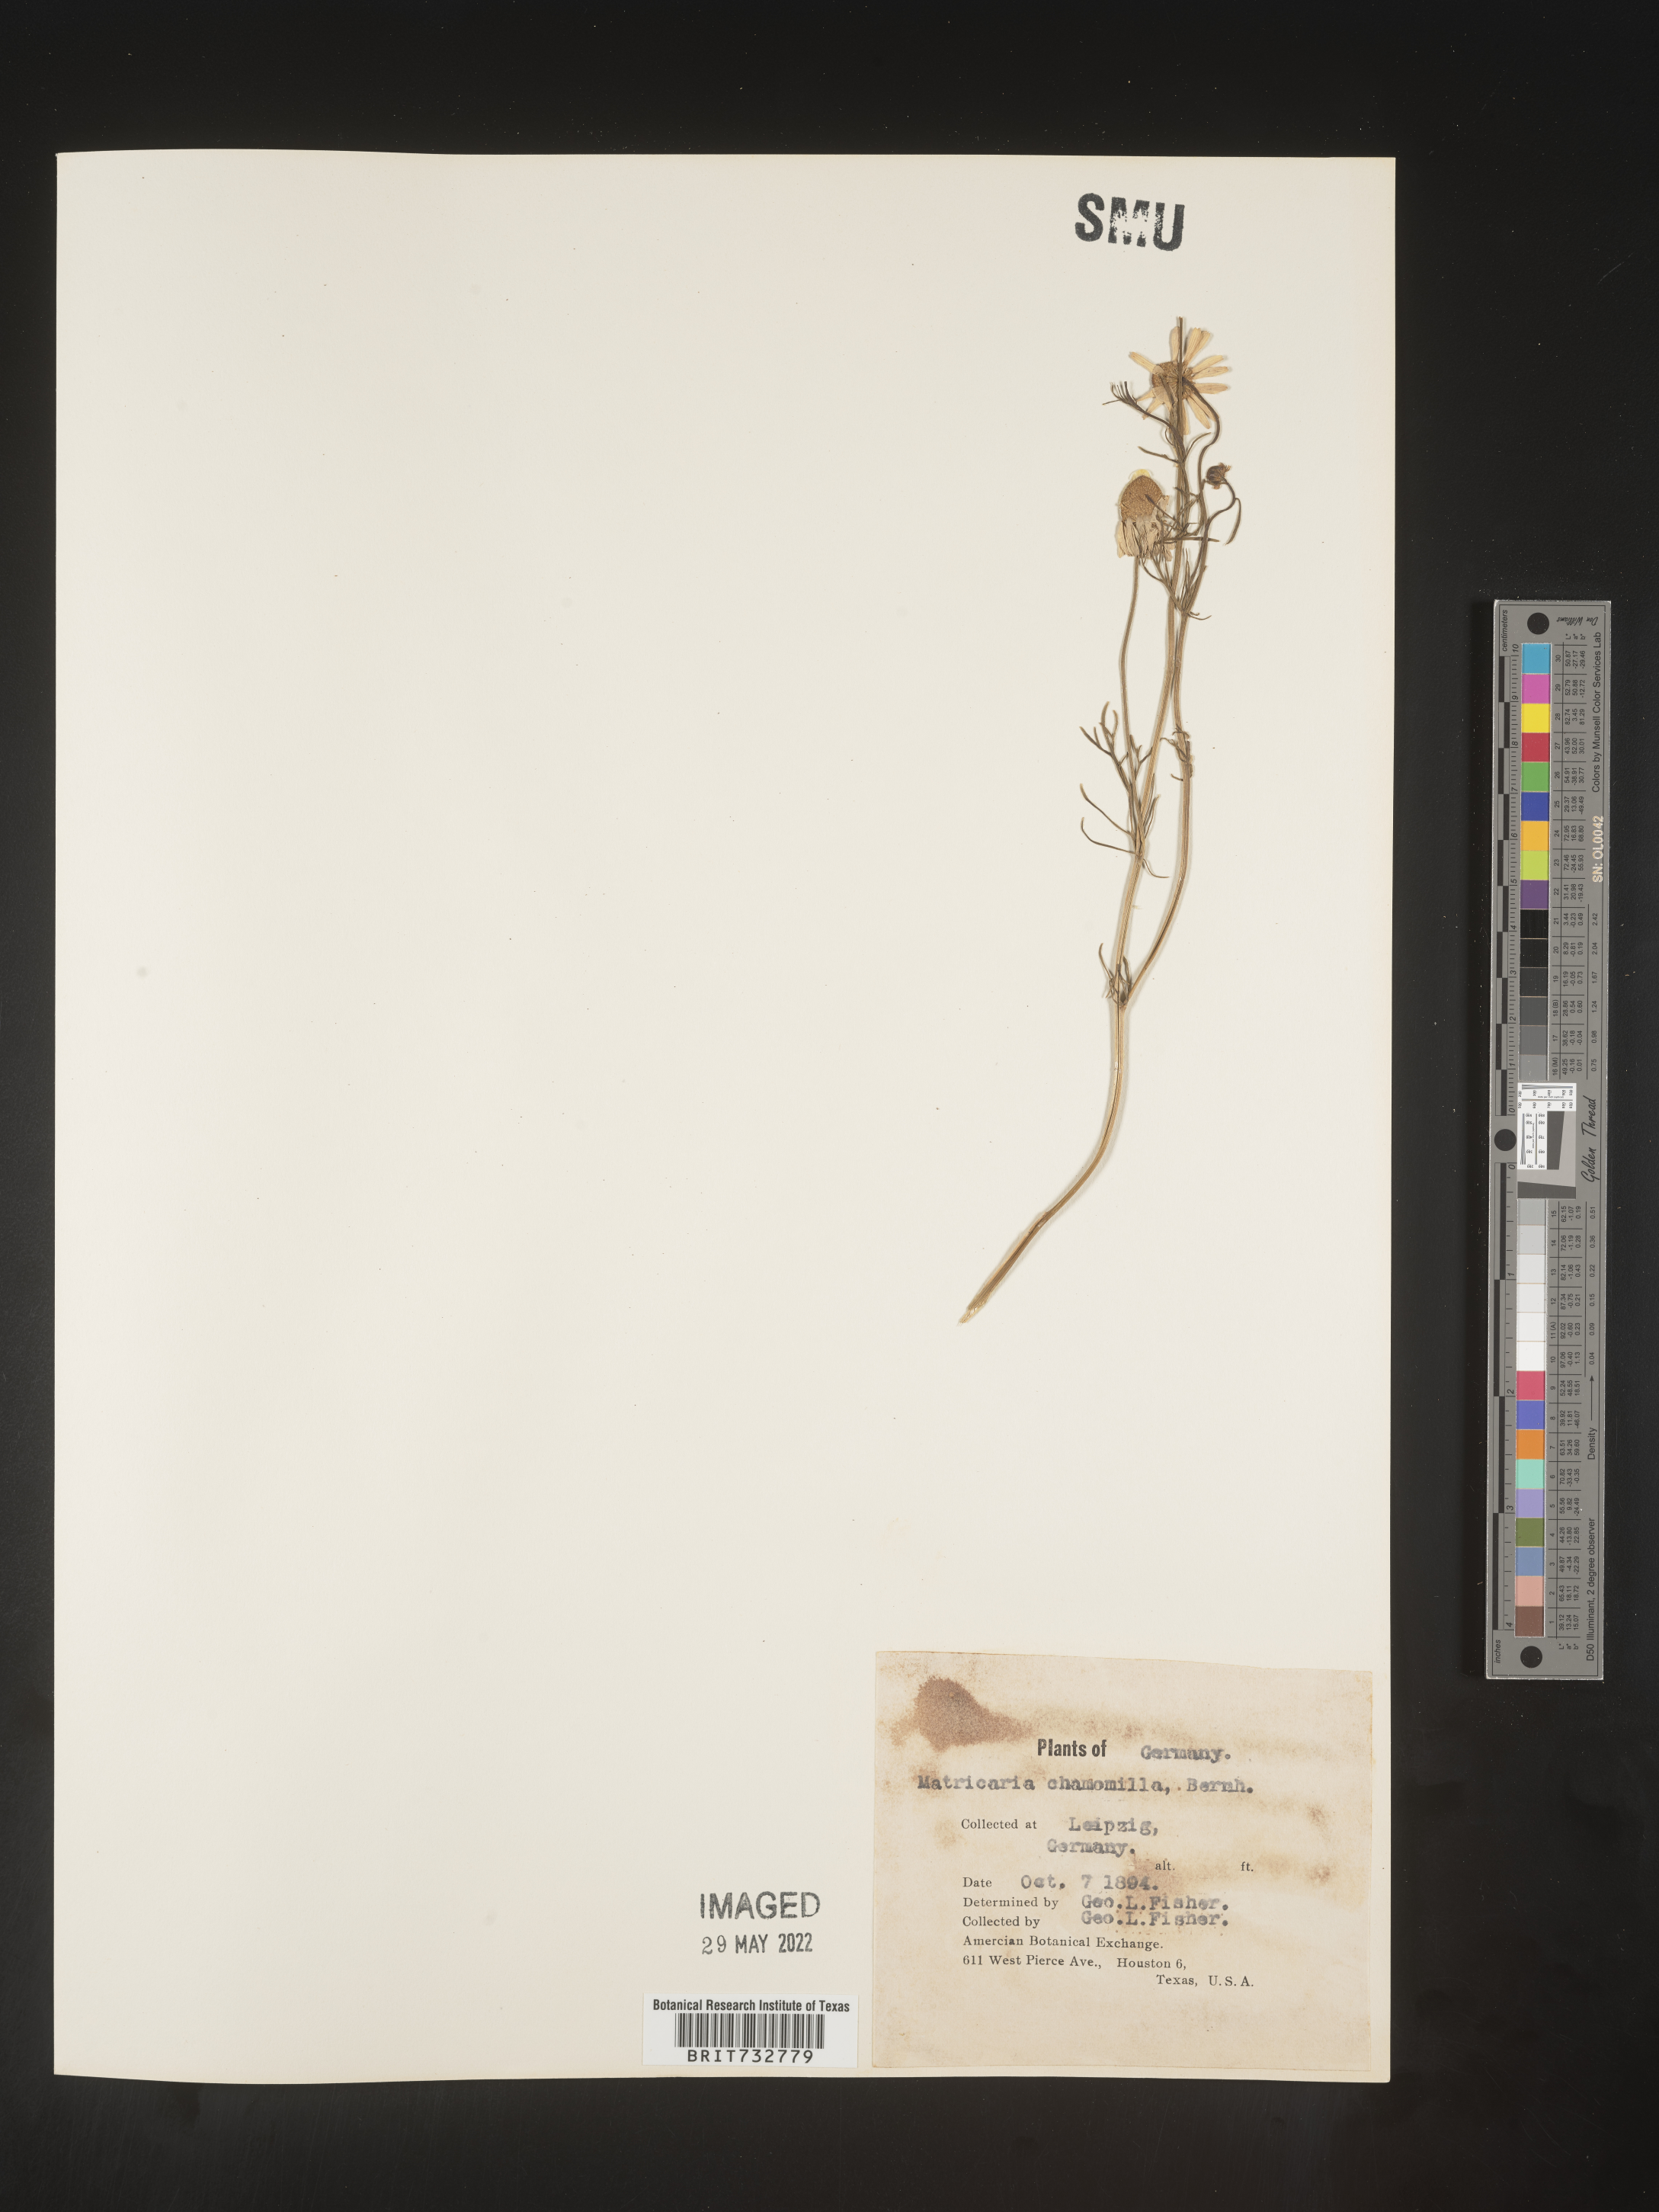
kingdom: Plantae
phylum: Tracheophyta
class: Magnoliopsida
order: Asterales
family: Asteraceae
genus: Matricaria
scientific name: Matricaria
